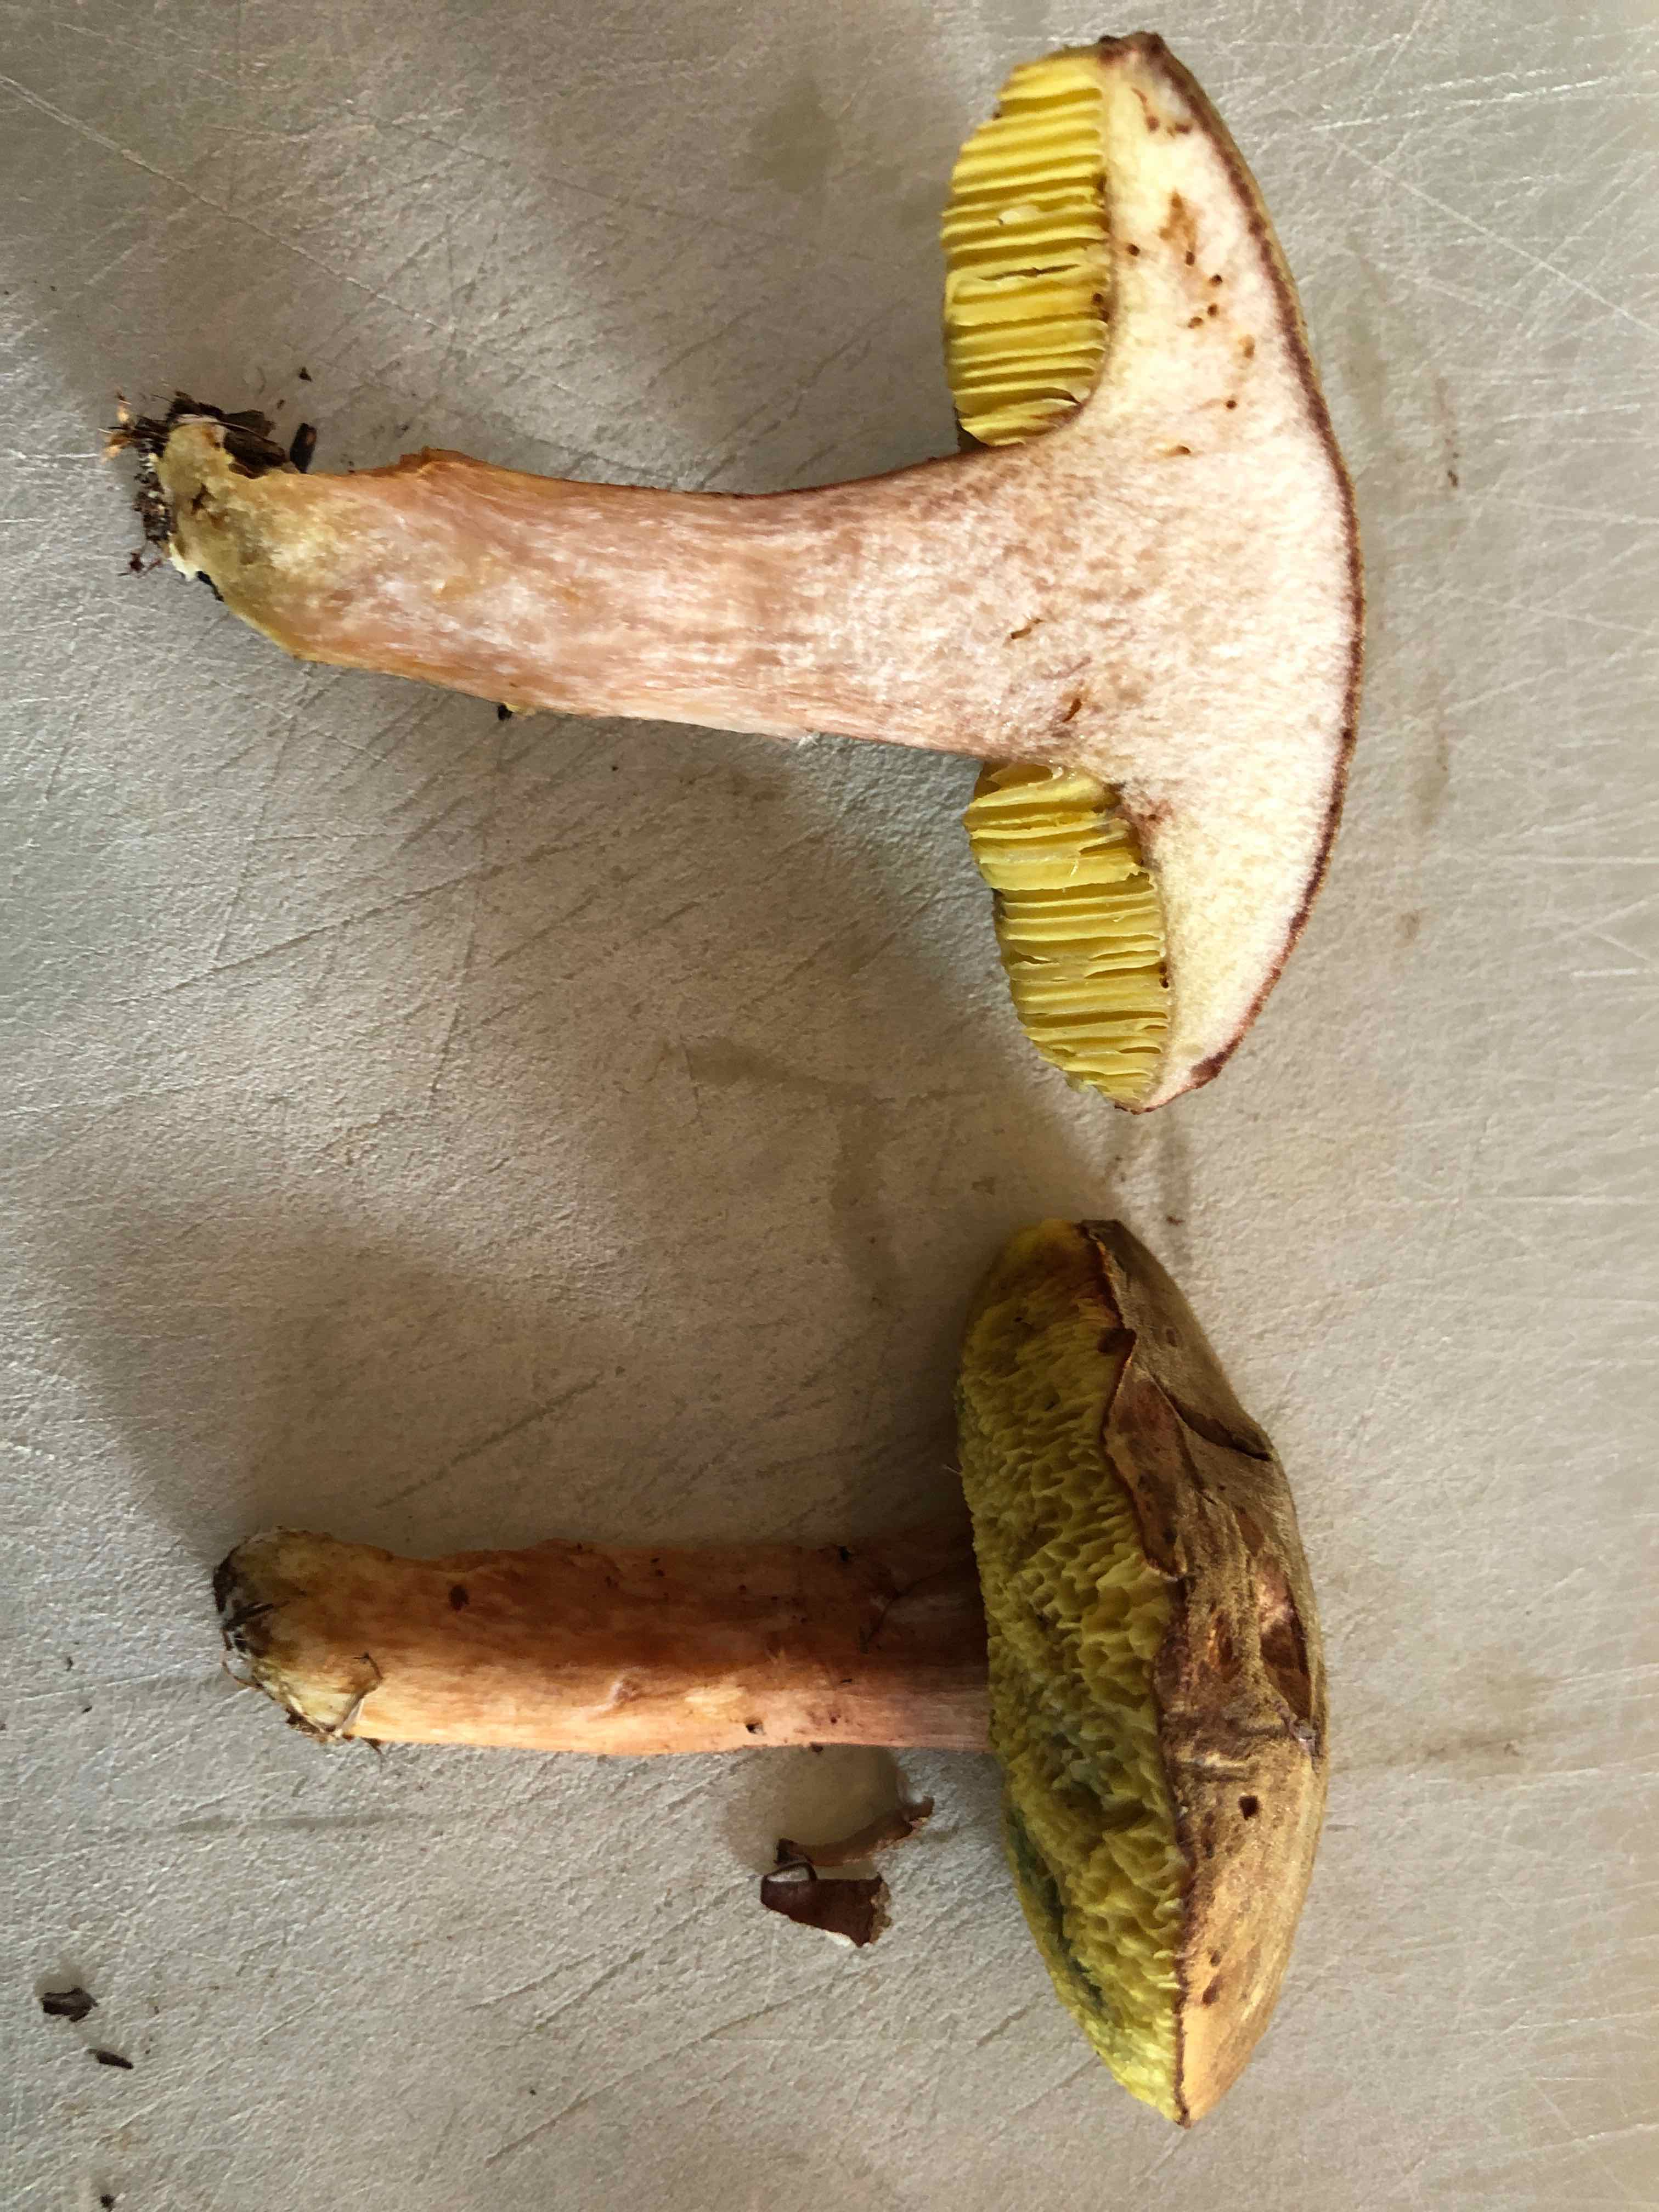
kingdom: Fungi
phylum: Basidiomycota
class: Agaricomycetes
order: Boletales
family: Boletaceae
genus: Xerocomus
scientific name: Xerocomus ferrugineus
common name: vaskeskinds-rørhat
